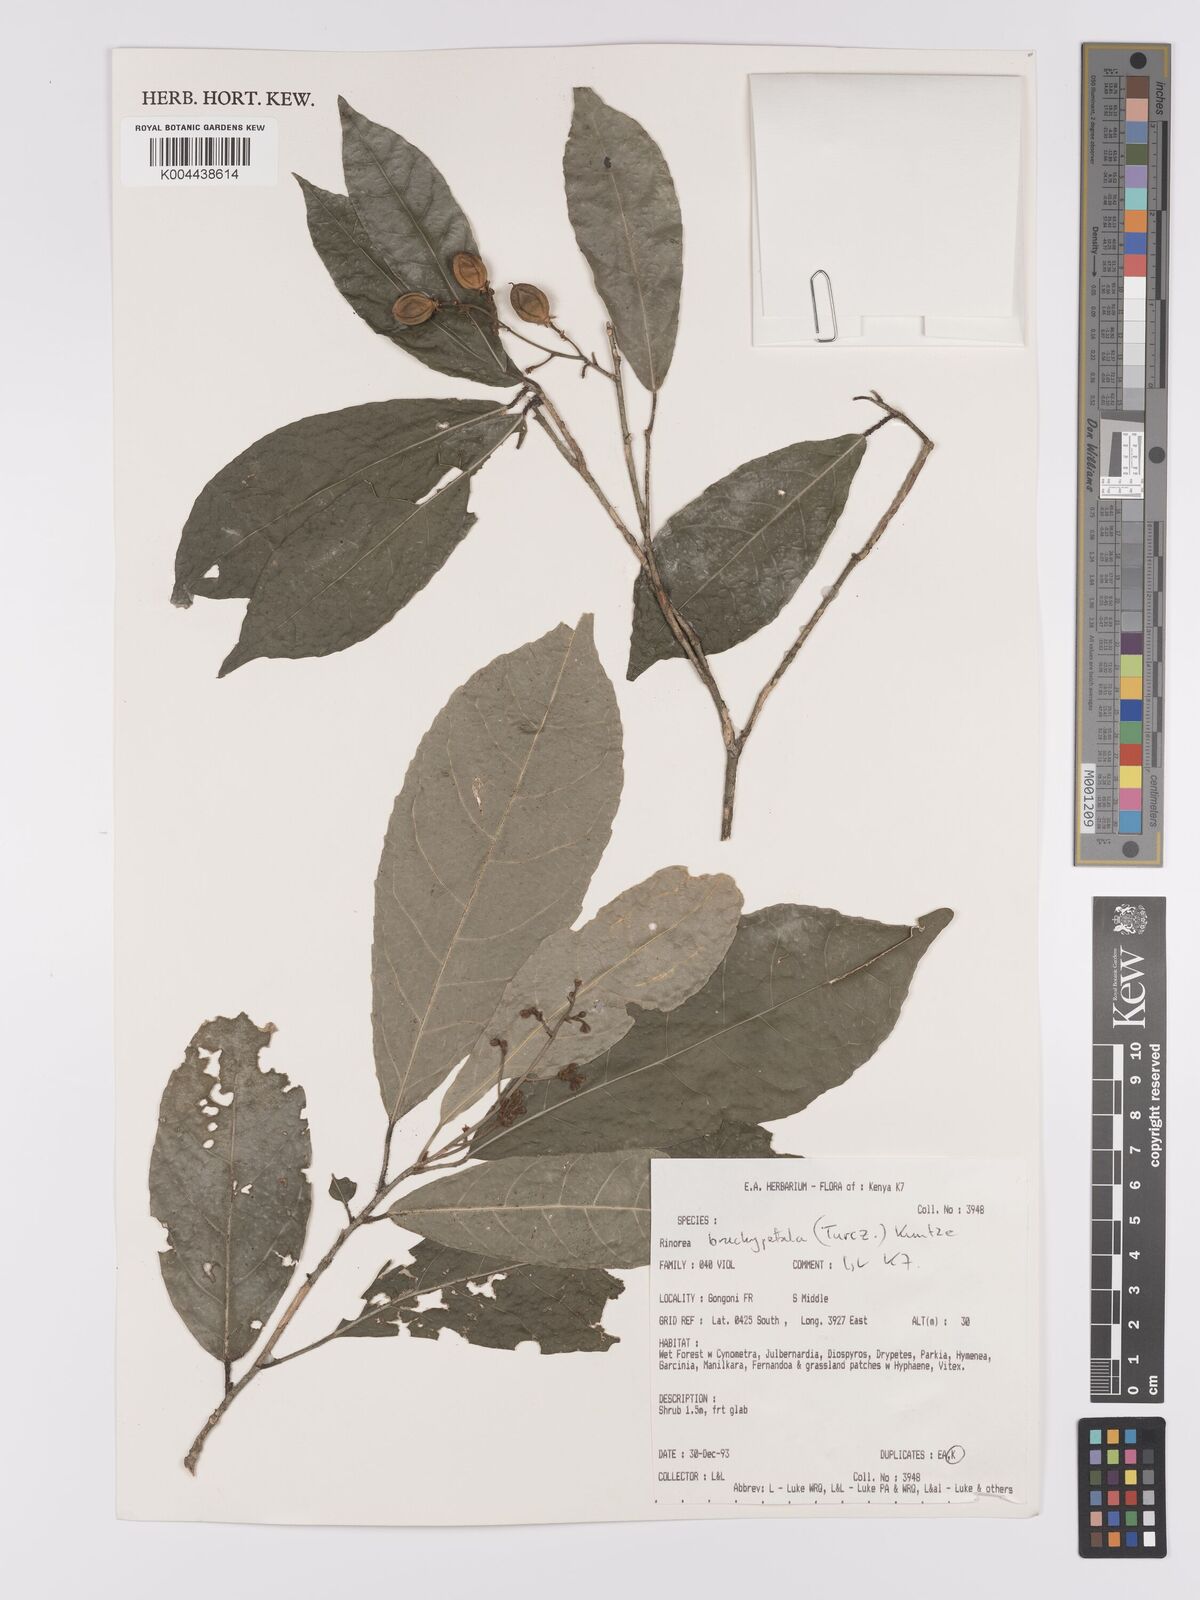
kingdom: Plantae
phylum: Tracheophyta
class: Magnoliopsida
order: Malpighiales
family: Violaceae
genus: Rinorea
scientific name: Rinorea brachypetala
